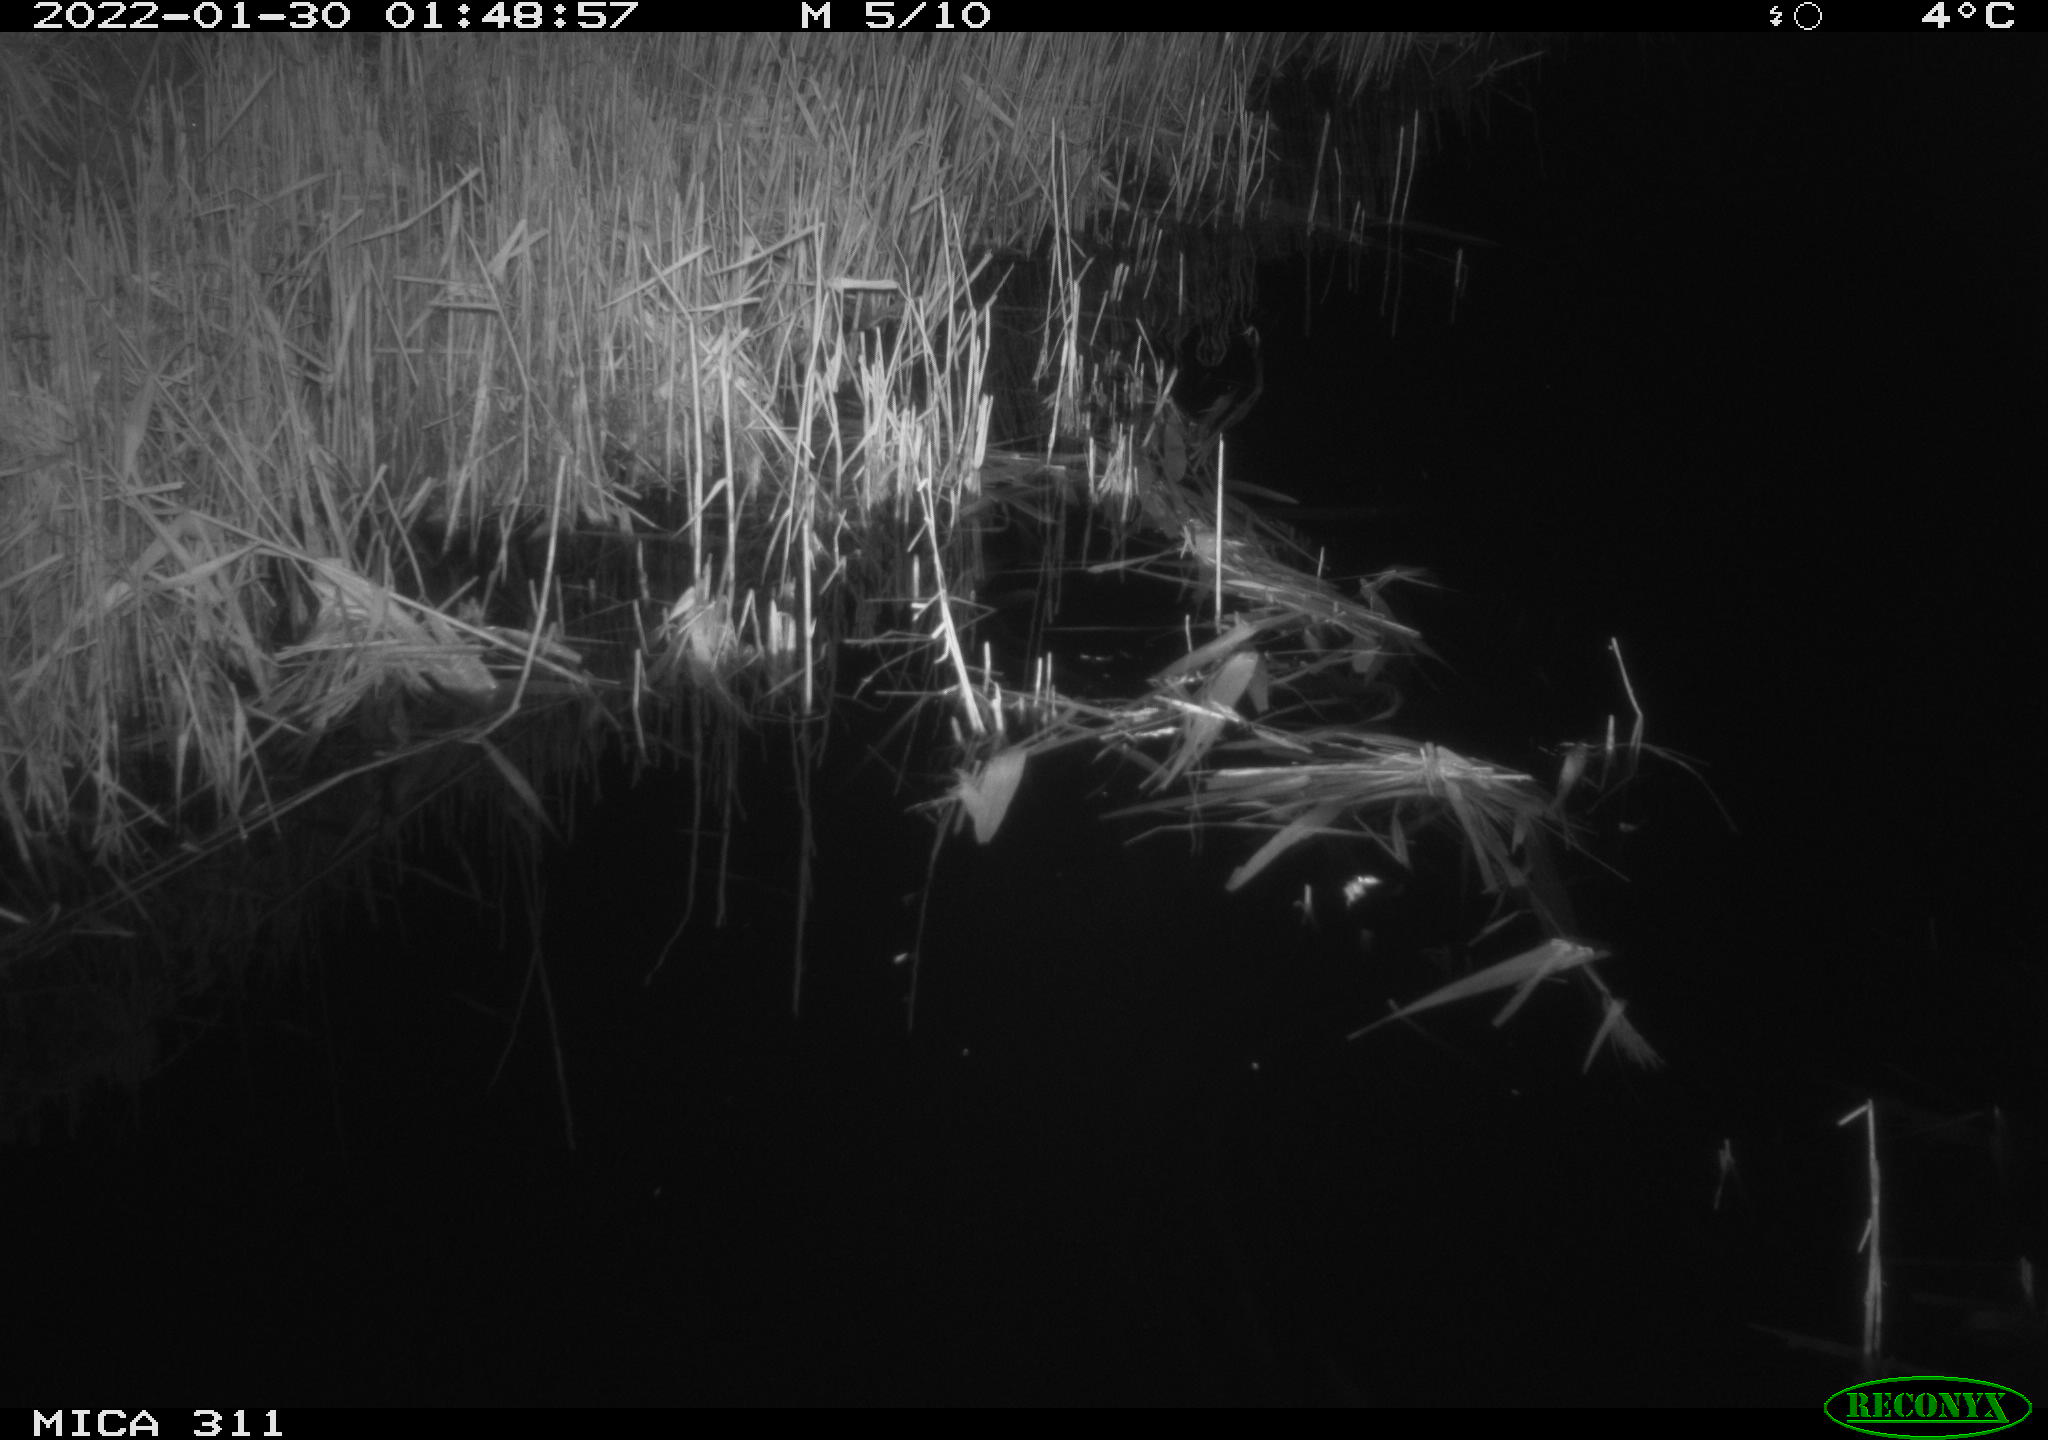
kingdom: Animalia
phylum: Chordata
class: Mammalia
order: Rodentia
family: Muridae
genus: Rattus
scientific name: Rattus norvegicus
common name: Brown rat
